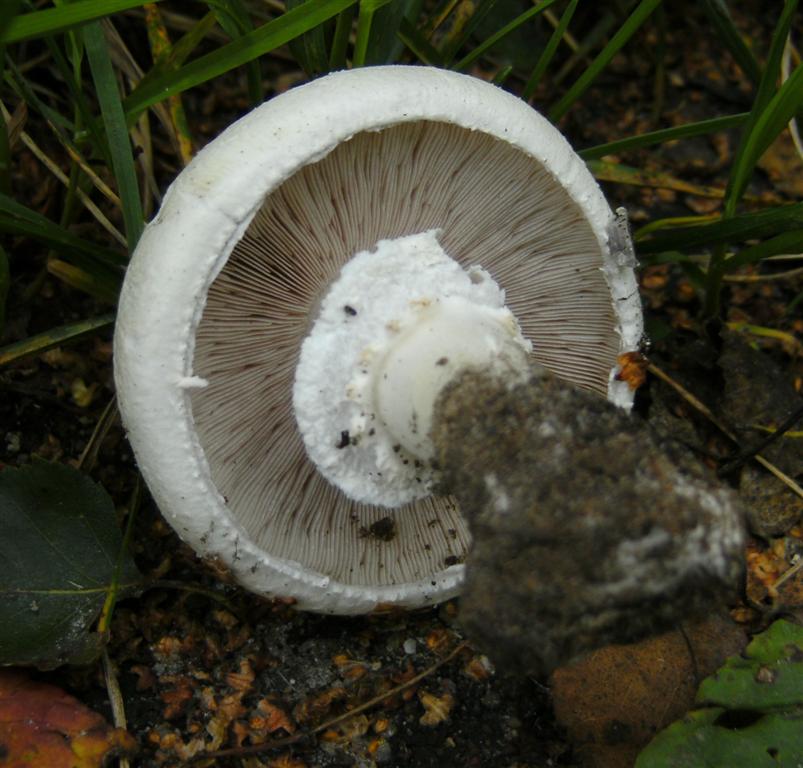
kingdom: Fungi
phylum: Basidiomycota
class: Agaricomycetes
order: Agaricales
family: Agaricaceae
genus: Agaricus
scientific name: Agaricus arvensis
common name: ager-champignon
